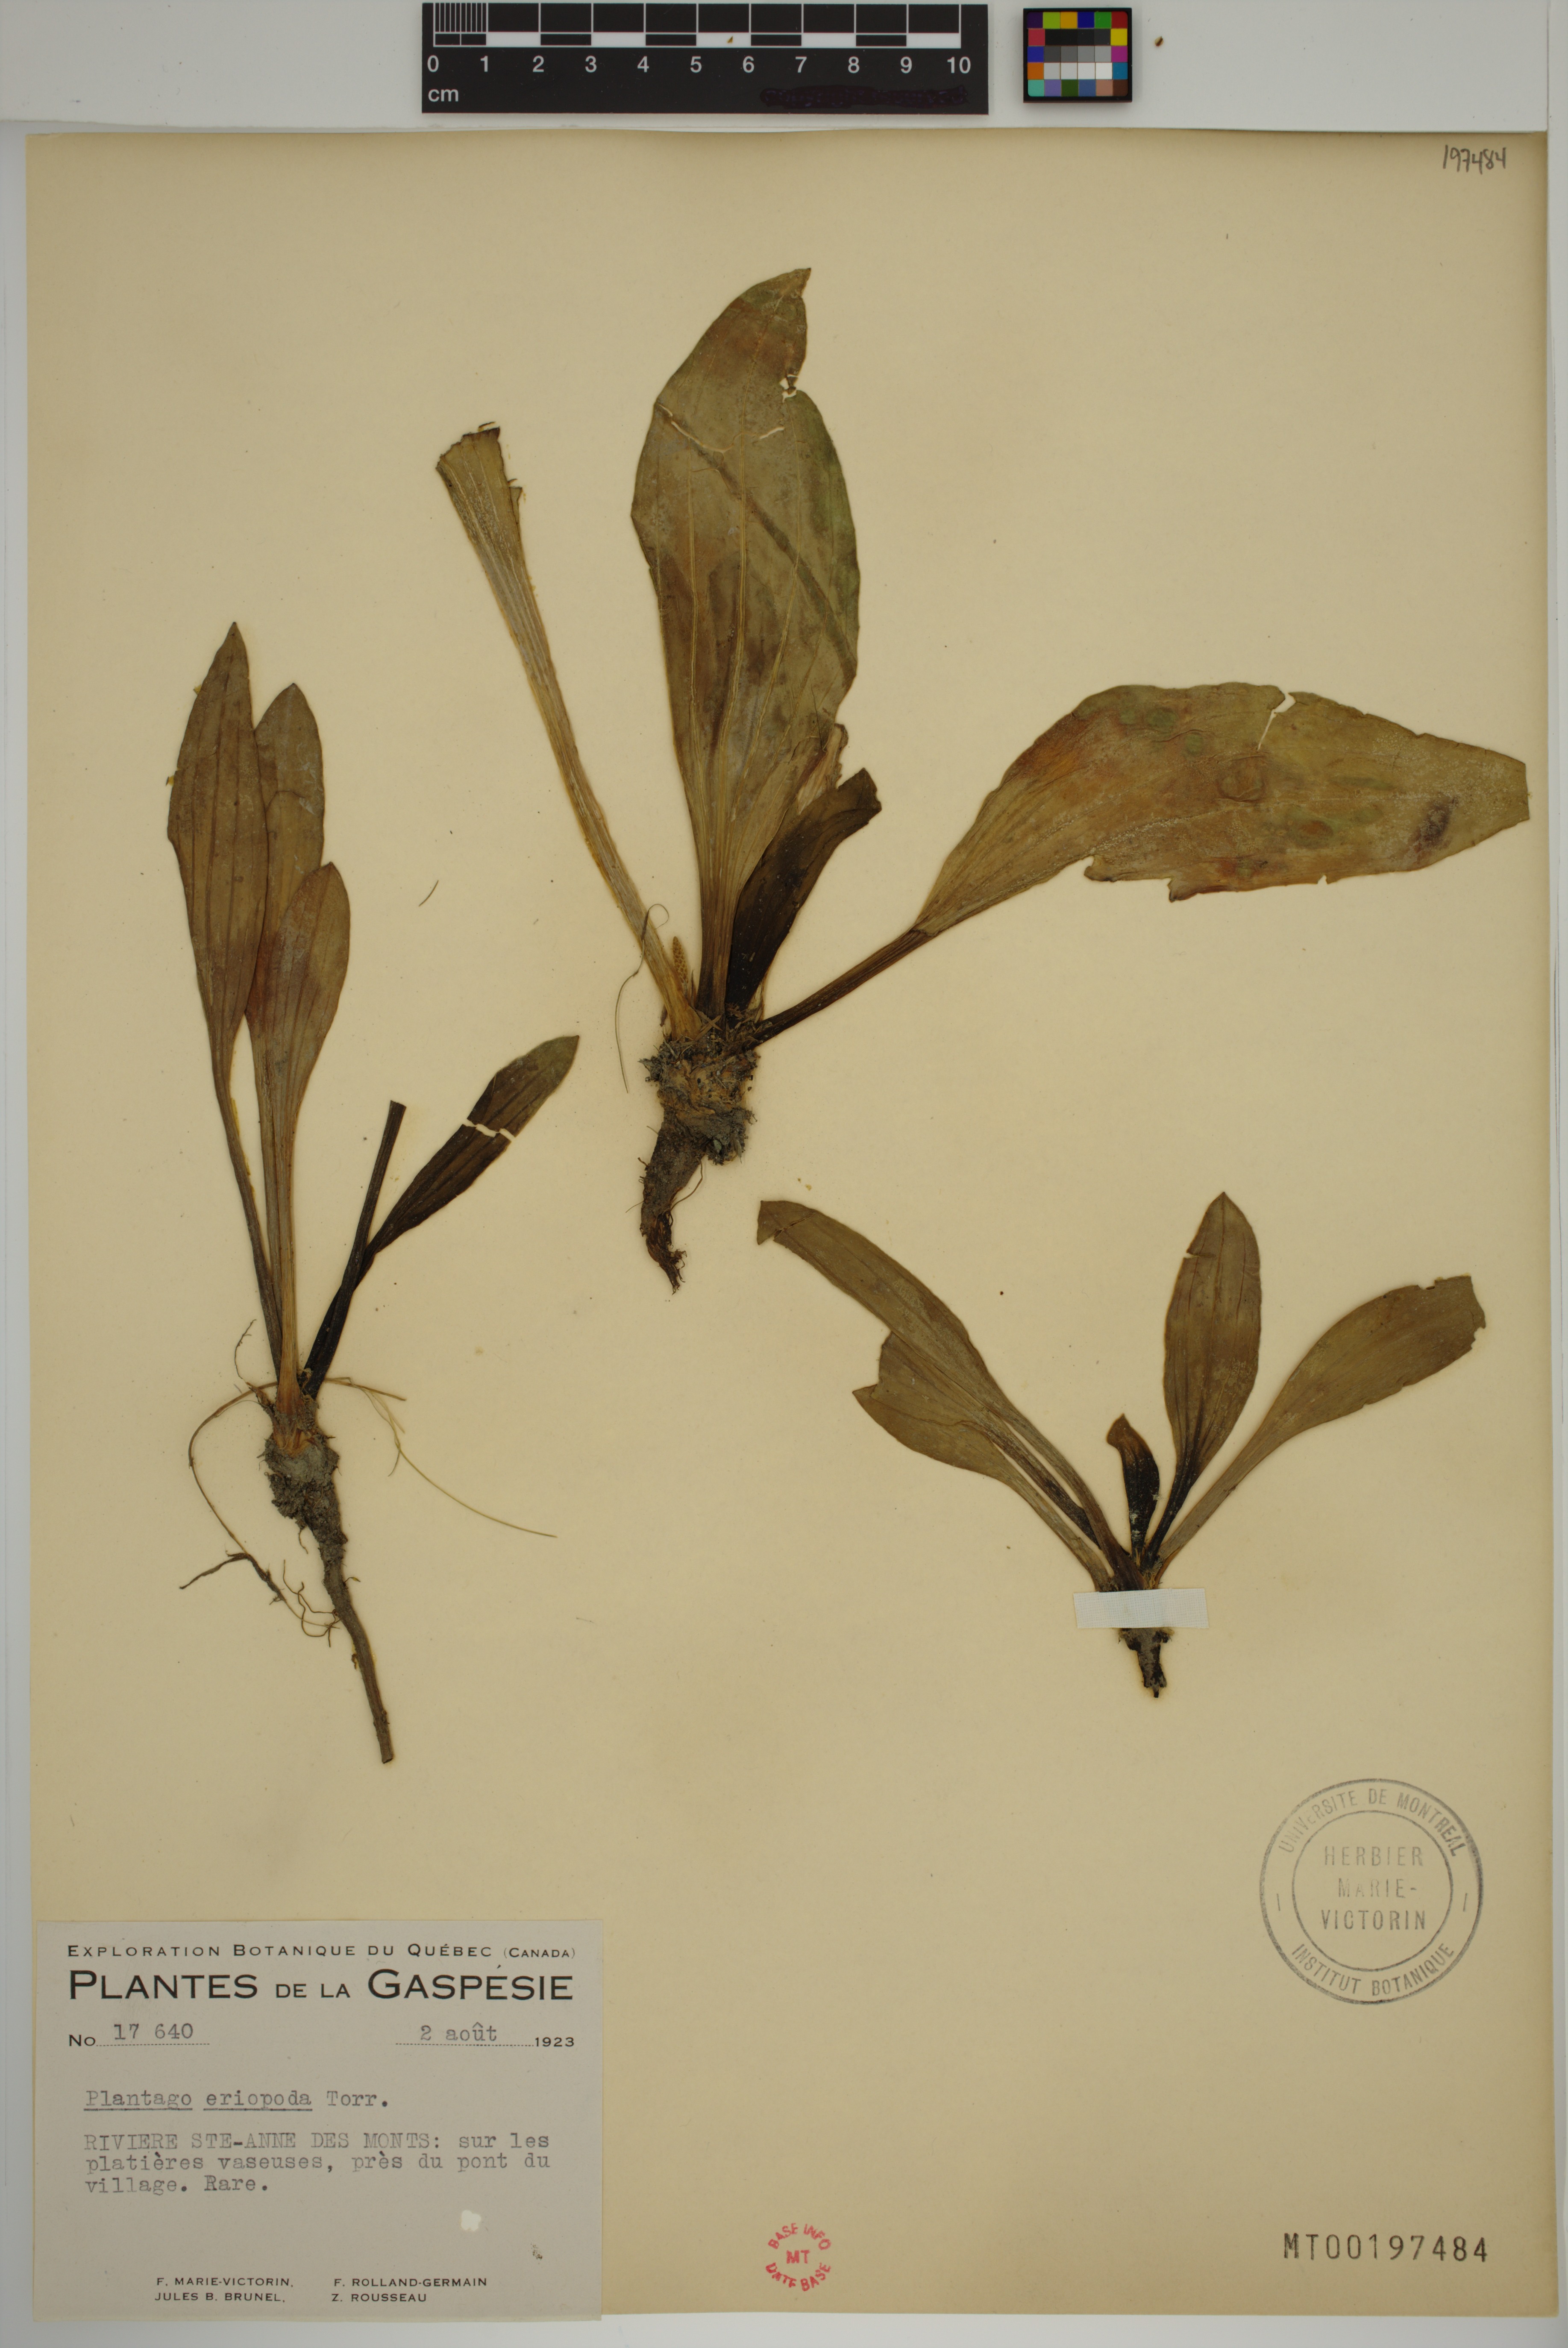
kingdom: Plantae
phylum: Tracheophyta
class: Magnoliopsida
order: Lamiales
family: Plantaginaceae
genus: Plantago
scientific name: Plantago eriopoda
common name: Alkali plantain
